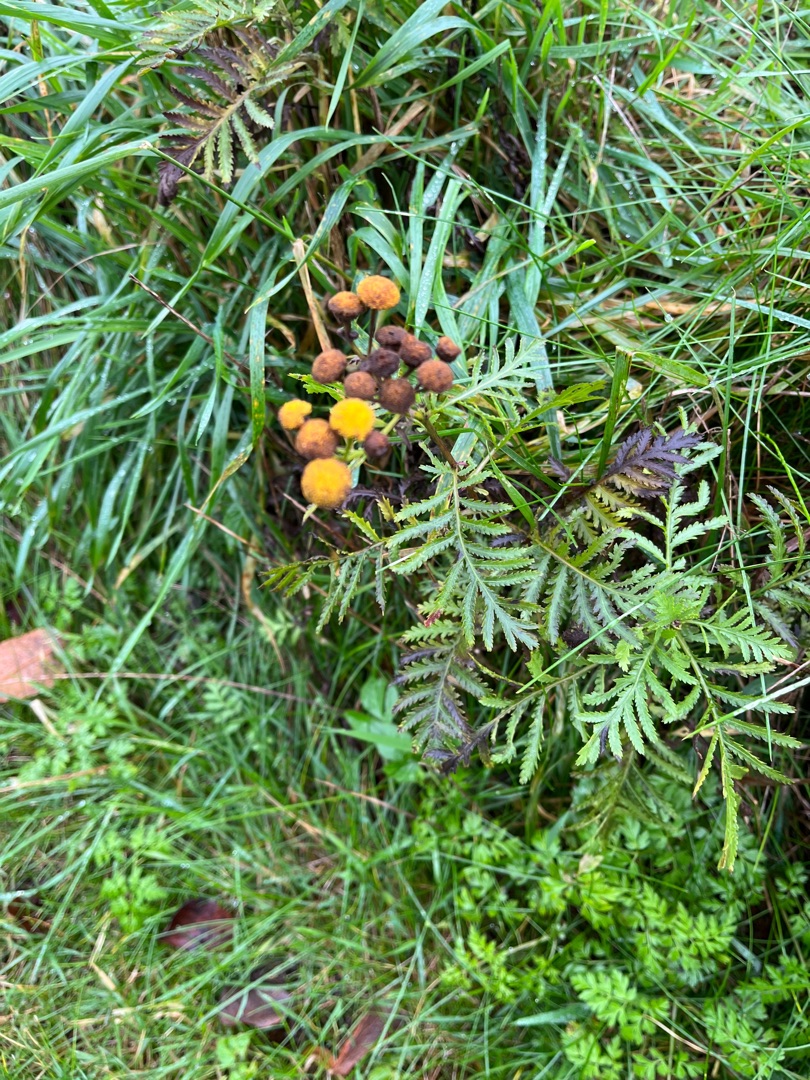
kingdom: Plantae
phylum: Tracheophyta
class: Magnoliopsida
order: Asterales
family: Asteraceae
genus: Tanacetum
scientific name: Tanacetum vulgare
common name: Rejnfan
